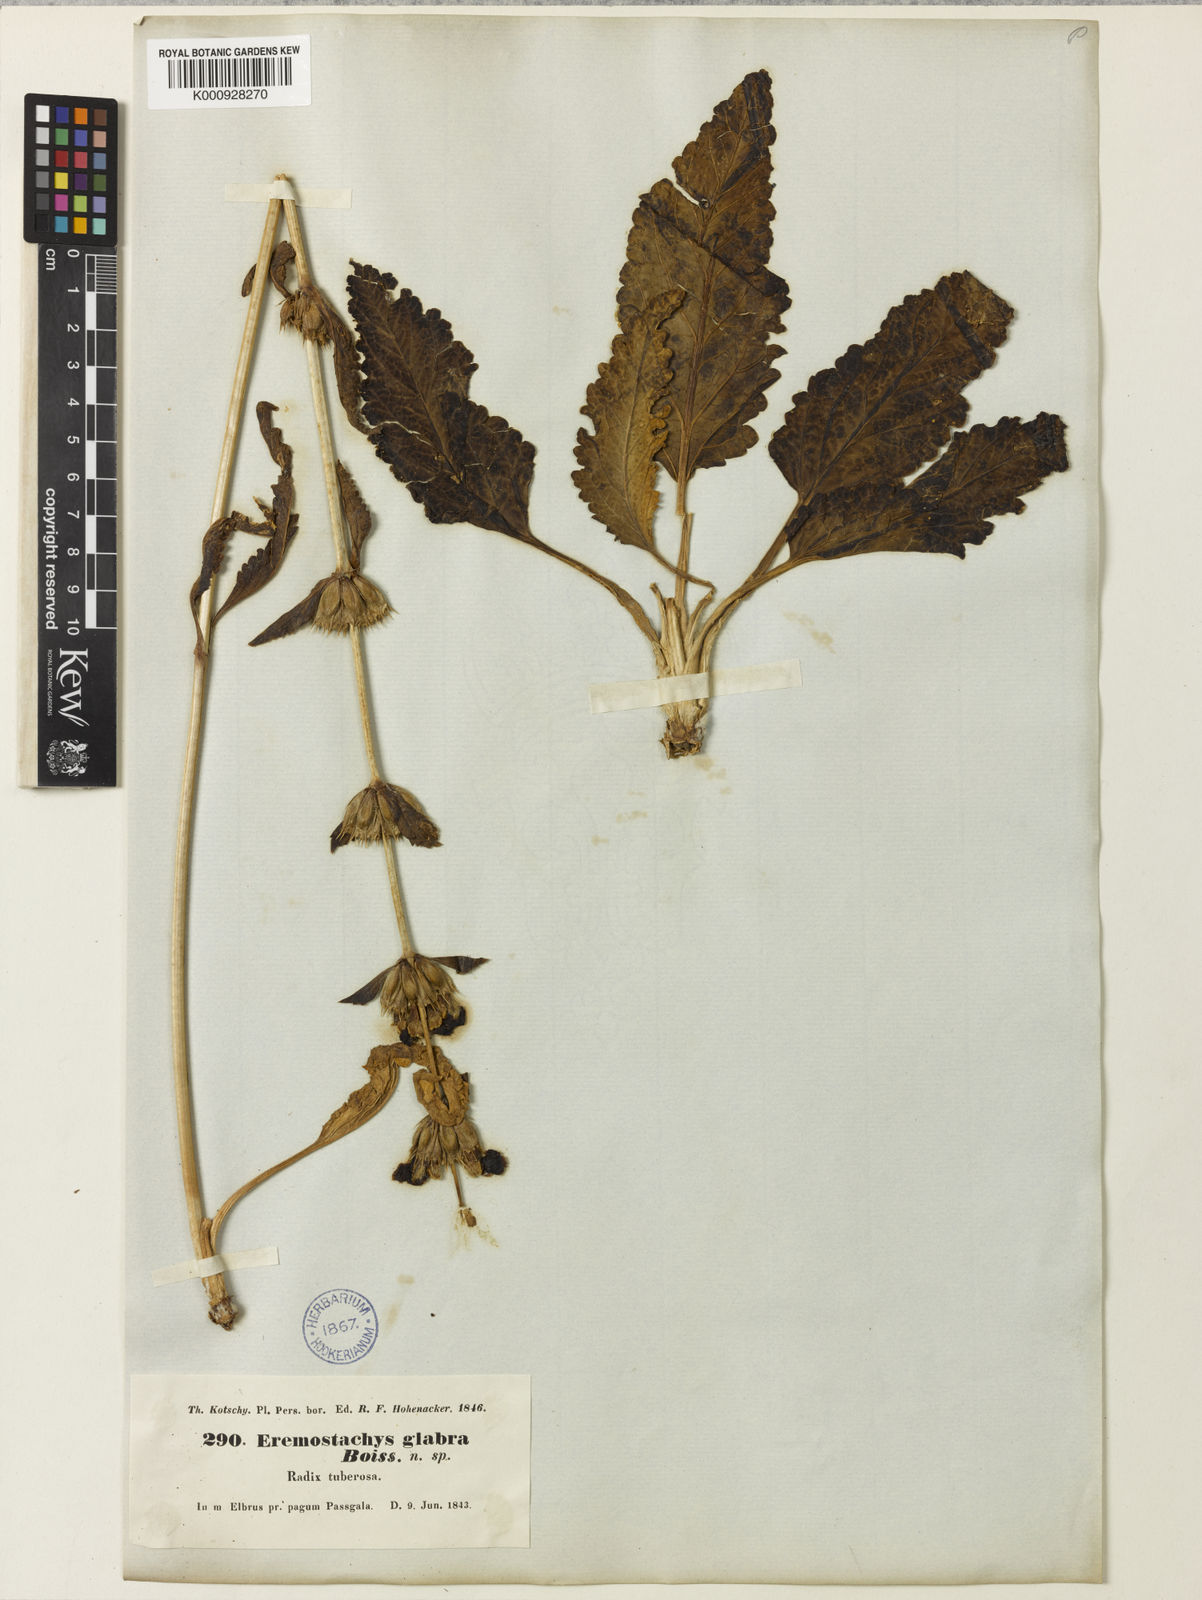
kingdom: Plantae
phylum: Tracheophyta
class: Magnoliopsida
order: Lamiales
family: Lamiaceae
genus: Phlomoides
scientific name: Phlomoides glabra
